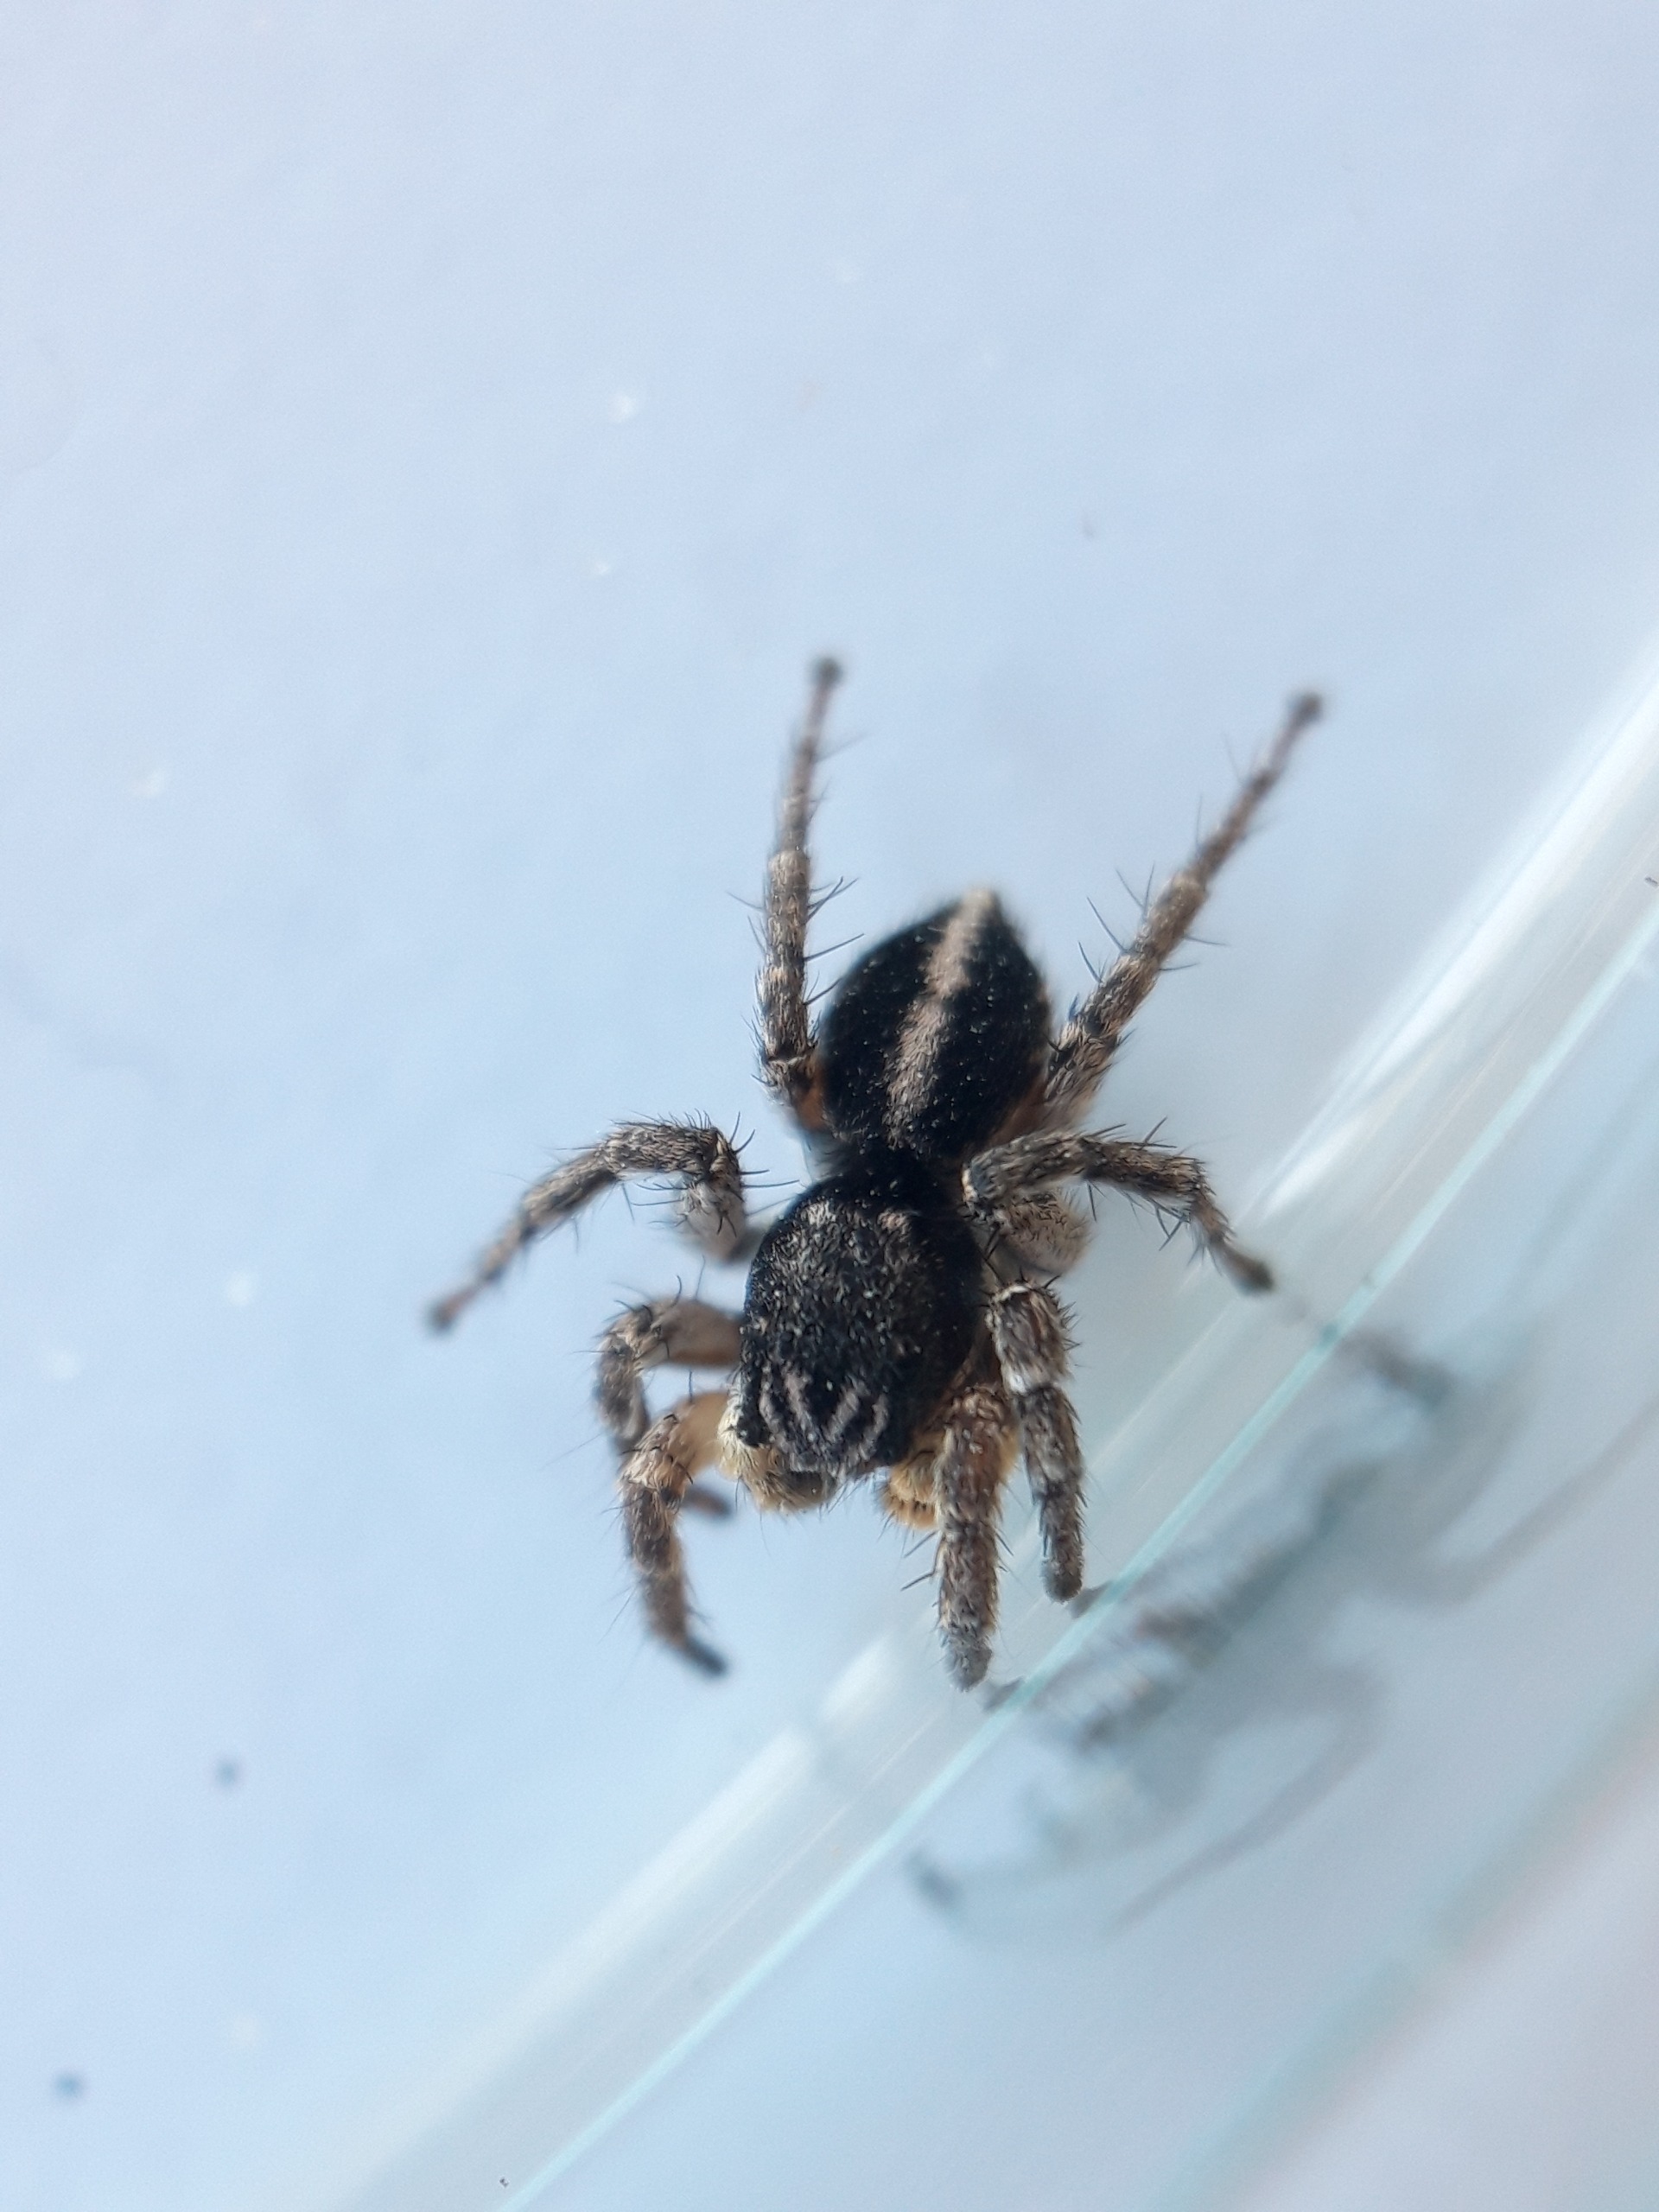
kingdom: Animalia
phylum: Arthropoda
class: Arachnida
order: Araneae
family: Salticidae
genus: Aelurillus
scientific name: Aelurillus v-insignitus
